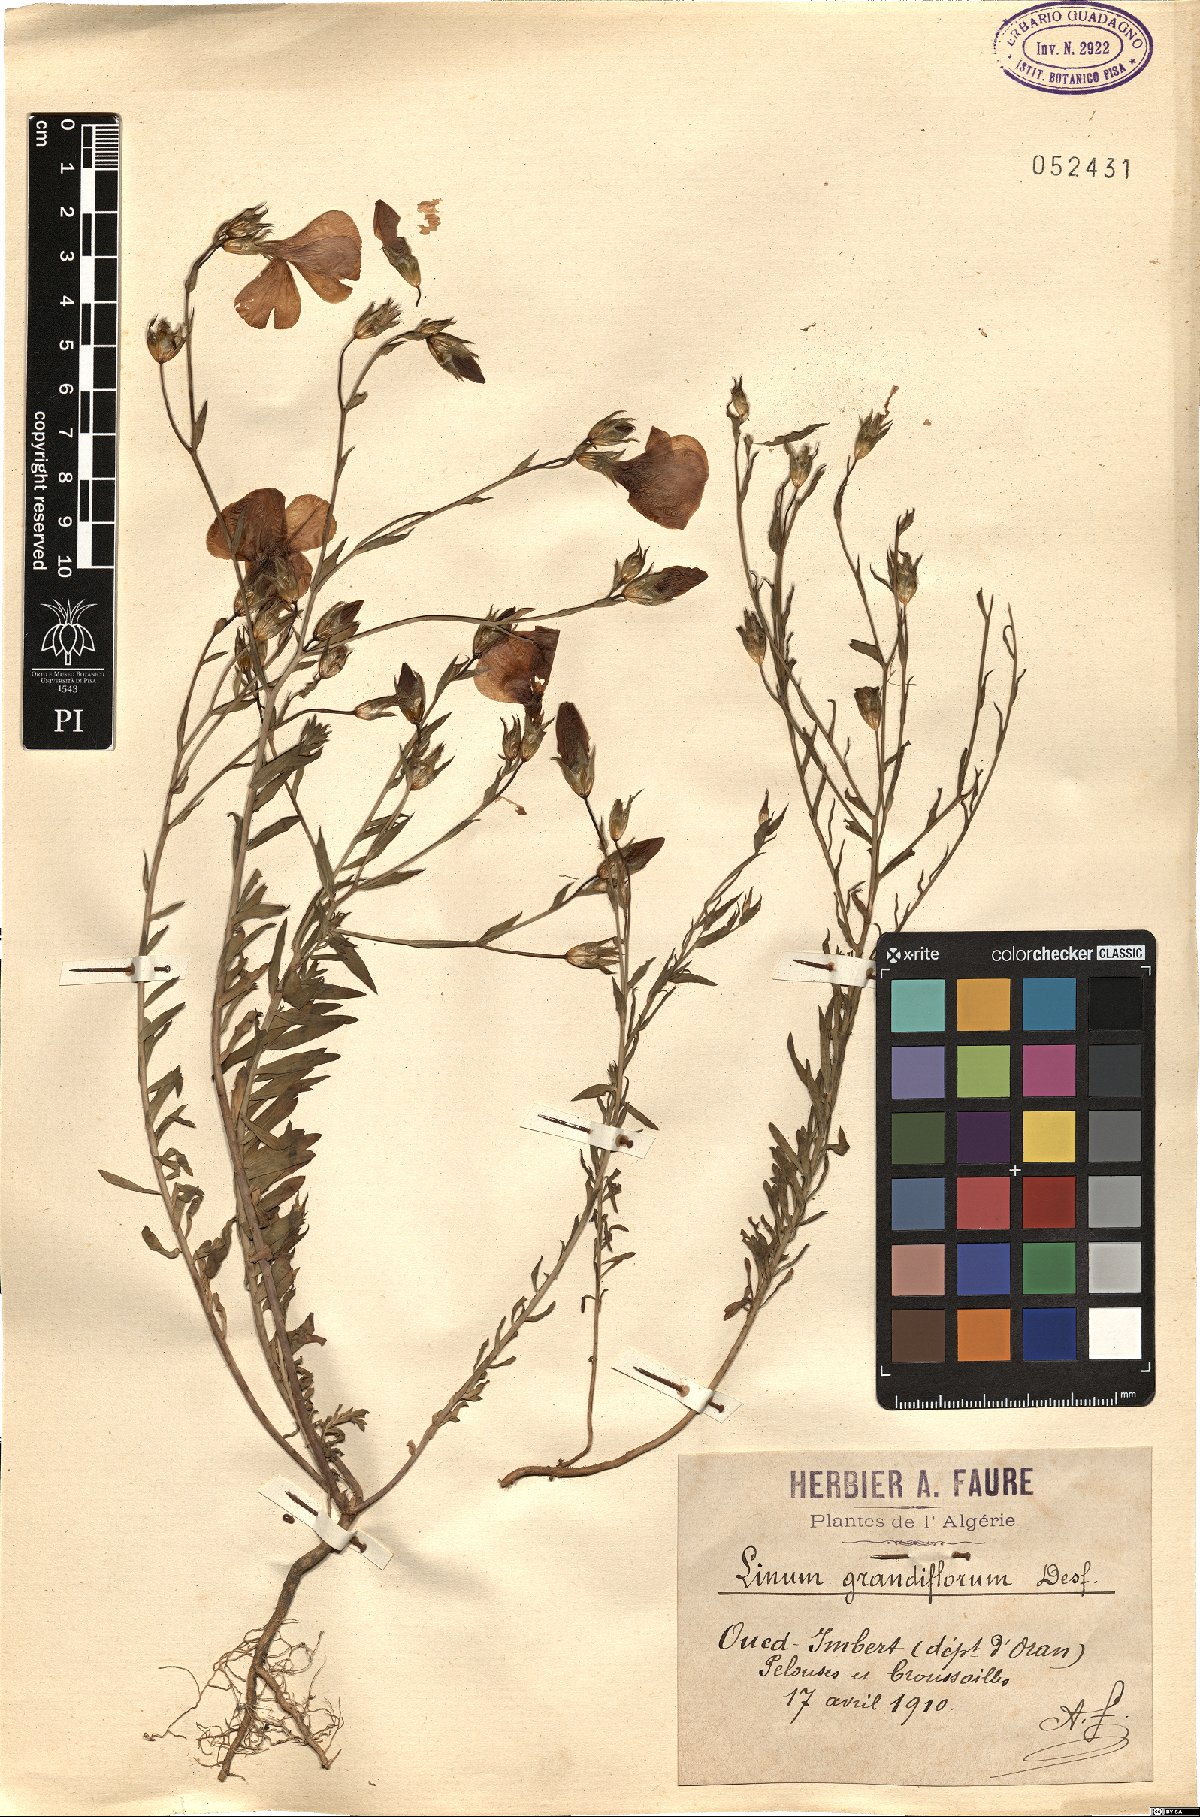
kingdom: Plantae
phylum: Tracheophyta
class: Magnoliopsida
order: Malpighiales
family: Linaceae
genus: Linum
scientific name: Linum grandiflorum
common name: Crimson flax
